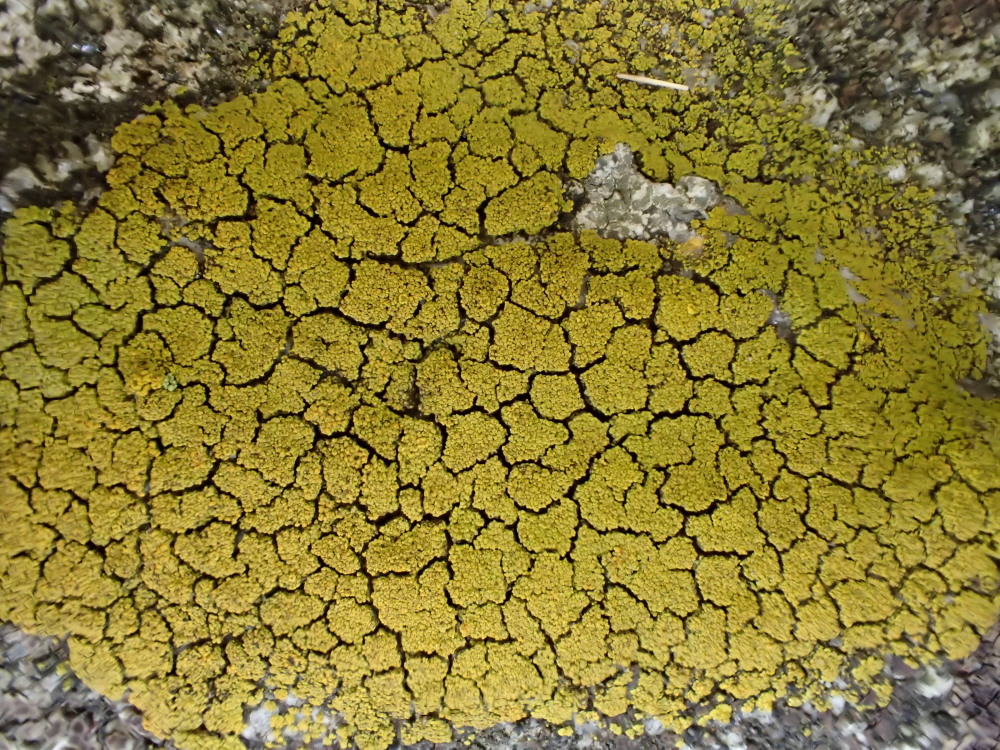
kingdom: Fungi
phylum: Ascomycota
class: Candelariomycetes
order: Candelariales
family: Candelariaceae
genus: Candelariella
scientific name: Candelariella vitellina
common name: almindelig æggeblommelav
